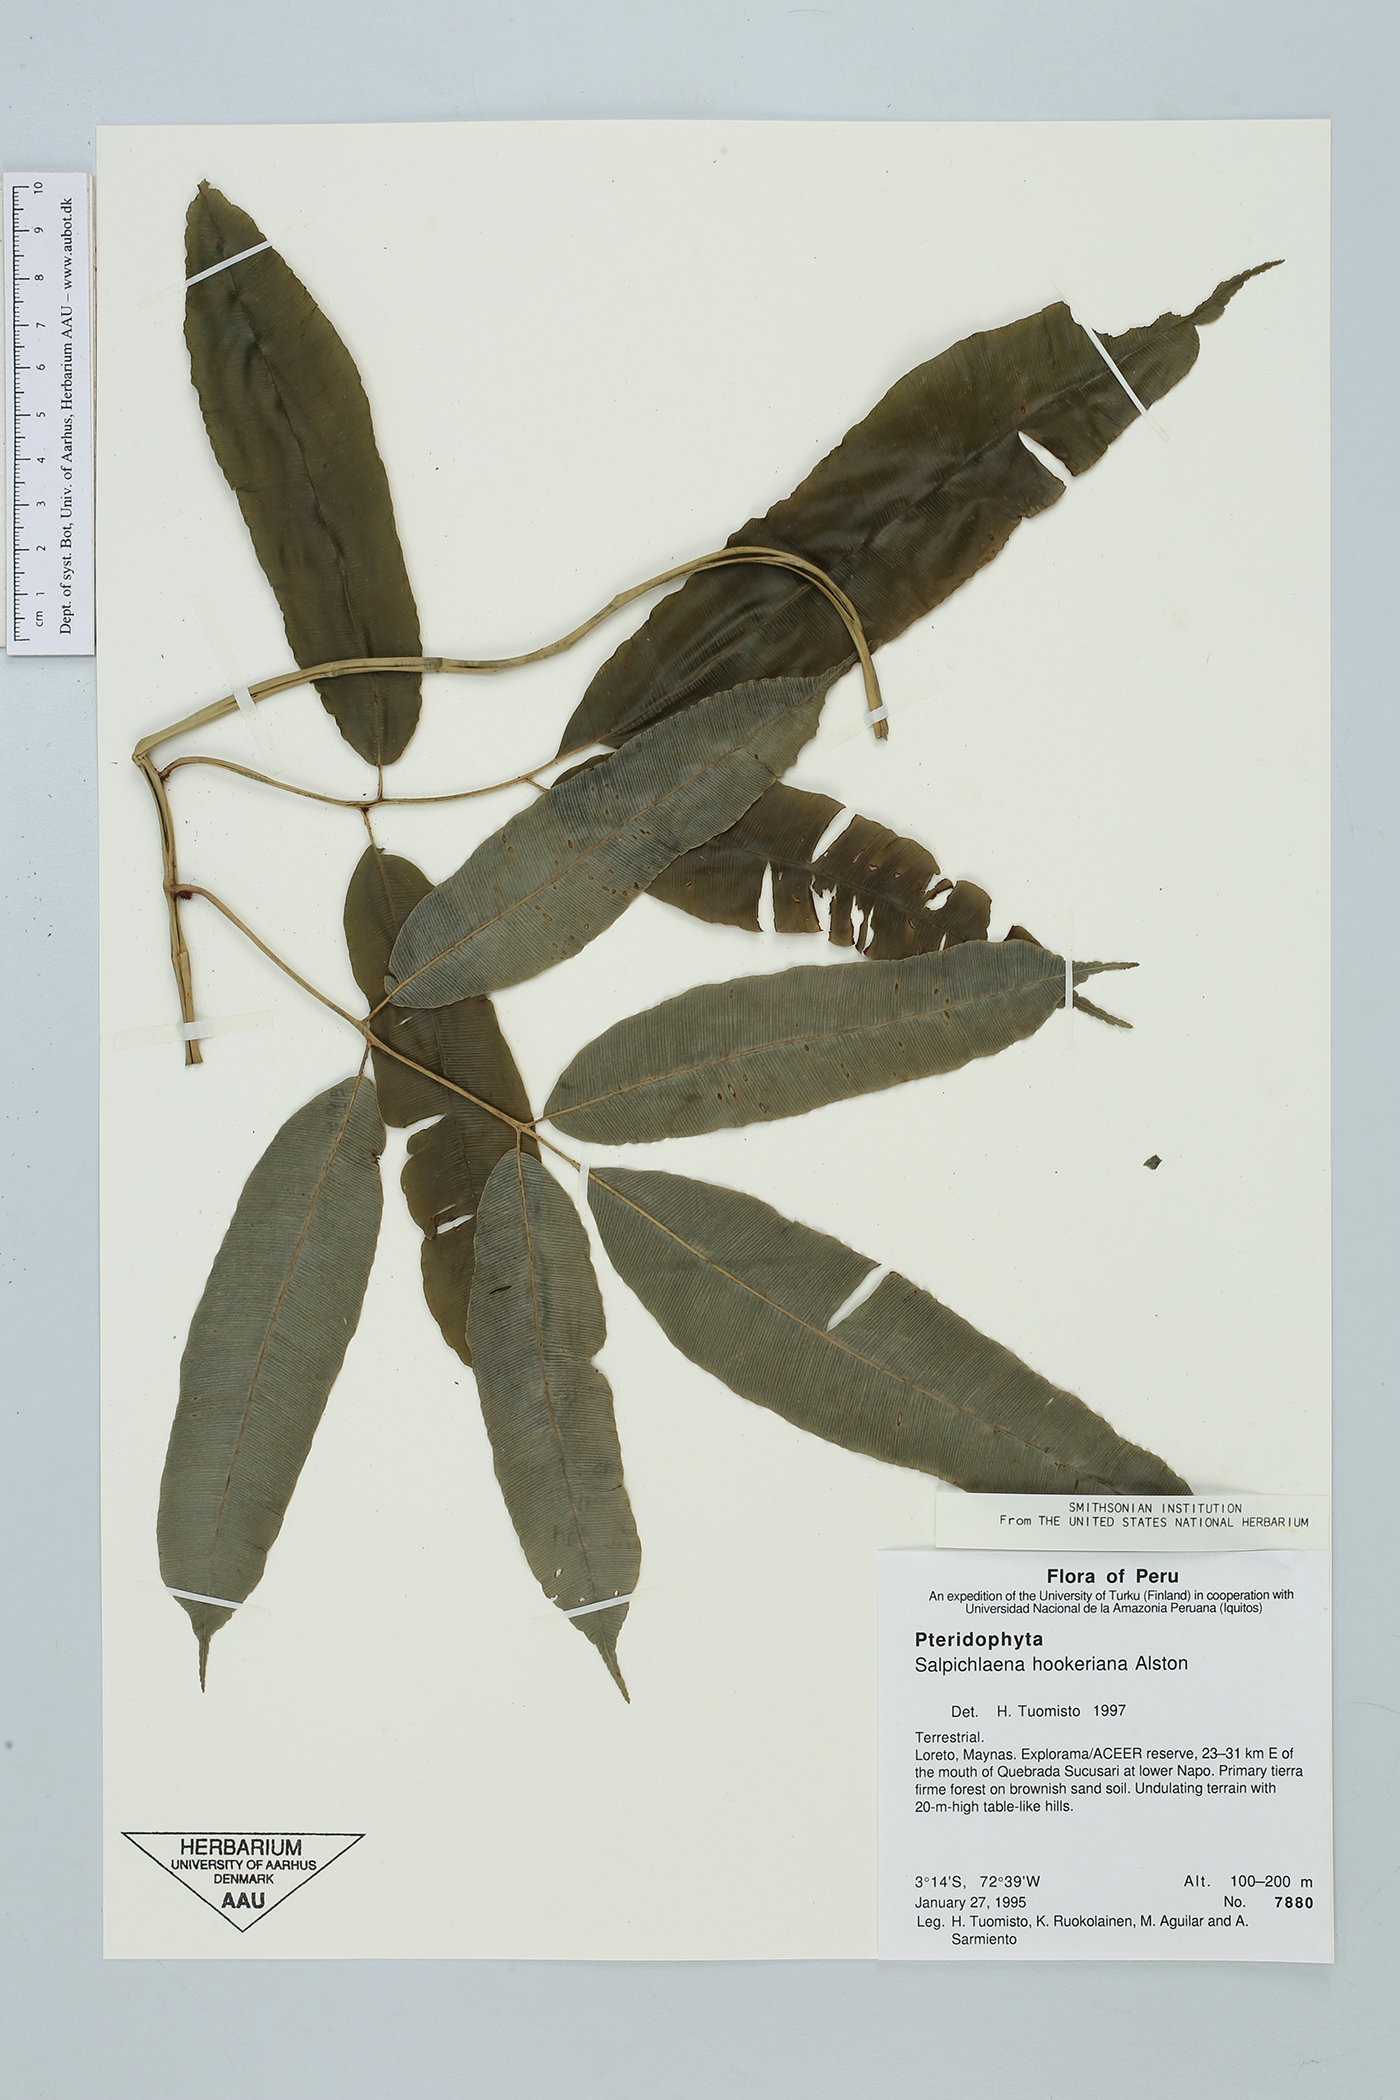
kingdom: Plantae
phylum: Tracheophyta
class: Polypodiopsida
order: Polypodiales
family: Blechnaceae
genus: Salpichlaena
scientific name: Salpichlaena hookeriana
